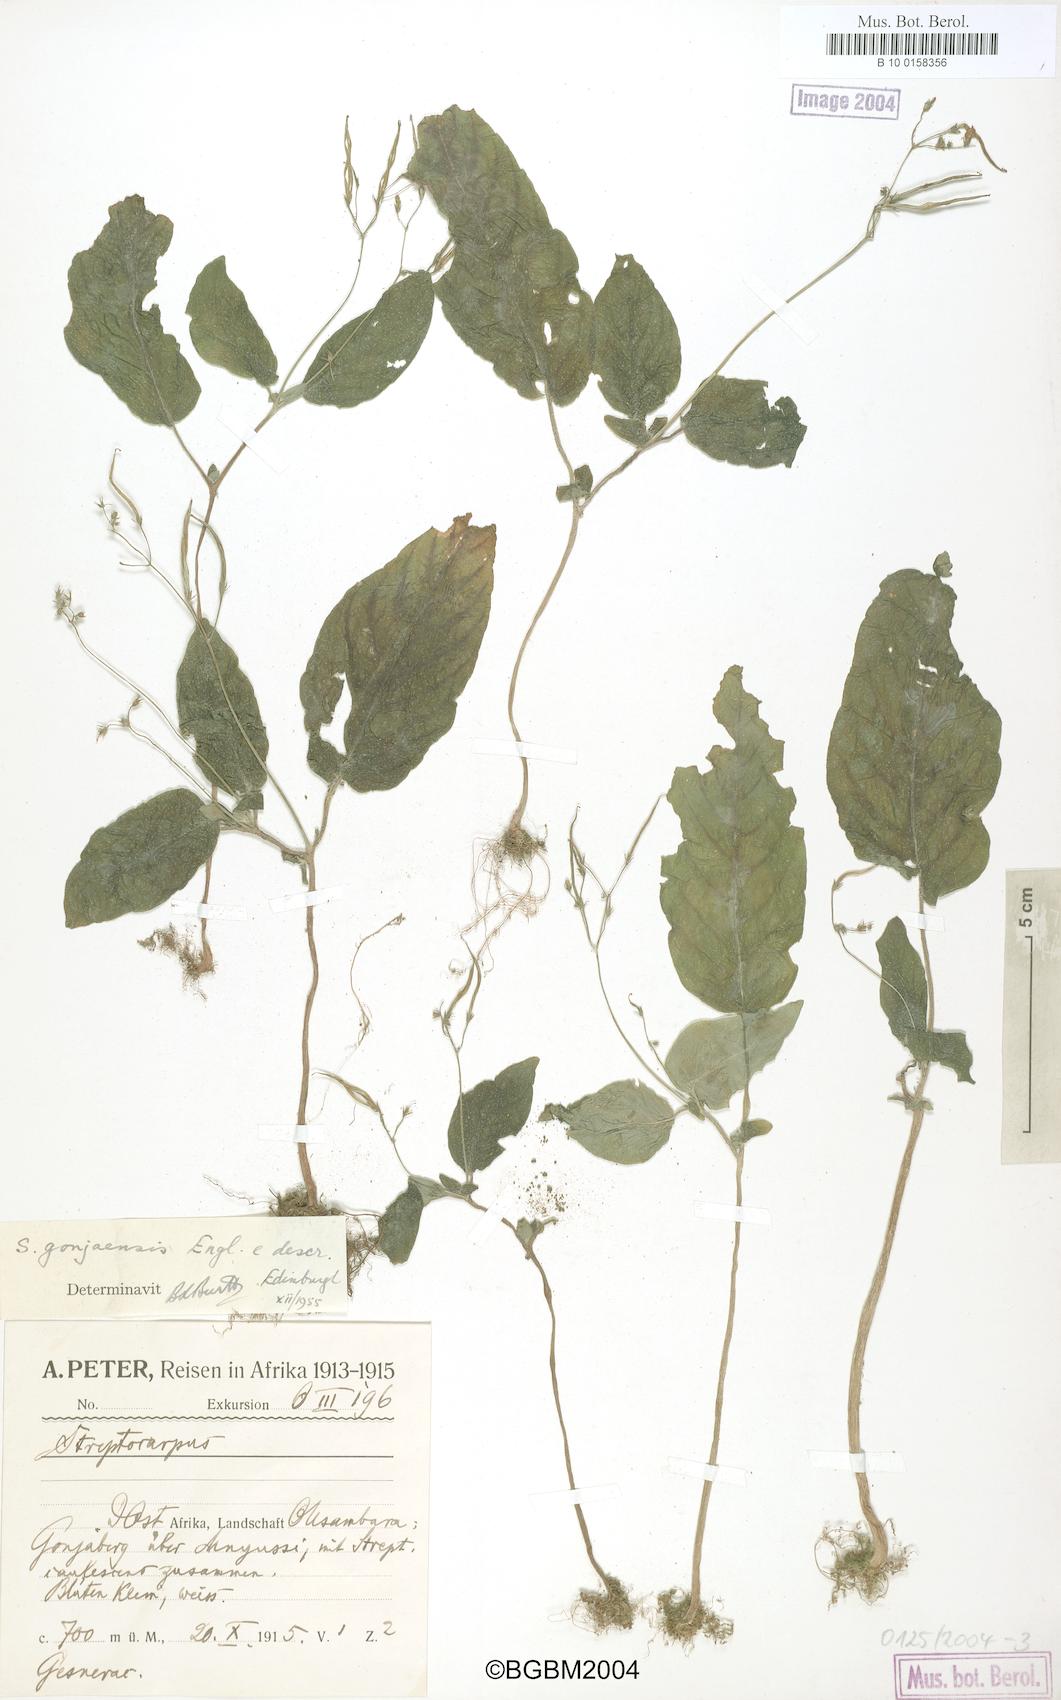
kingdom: Plantae
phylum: Tracheophyta
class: Magnoliopsida
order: Lamiales
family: Gesneriaceae
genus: Streptocarpus
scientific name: Streptocarpus gonjaensis
